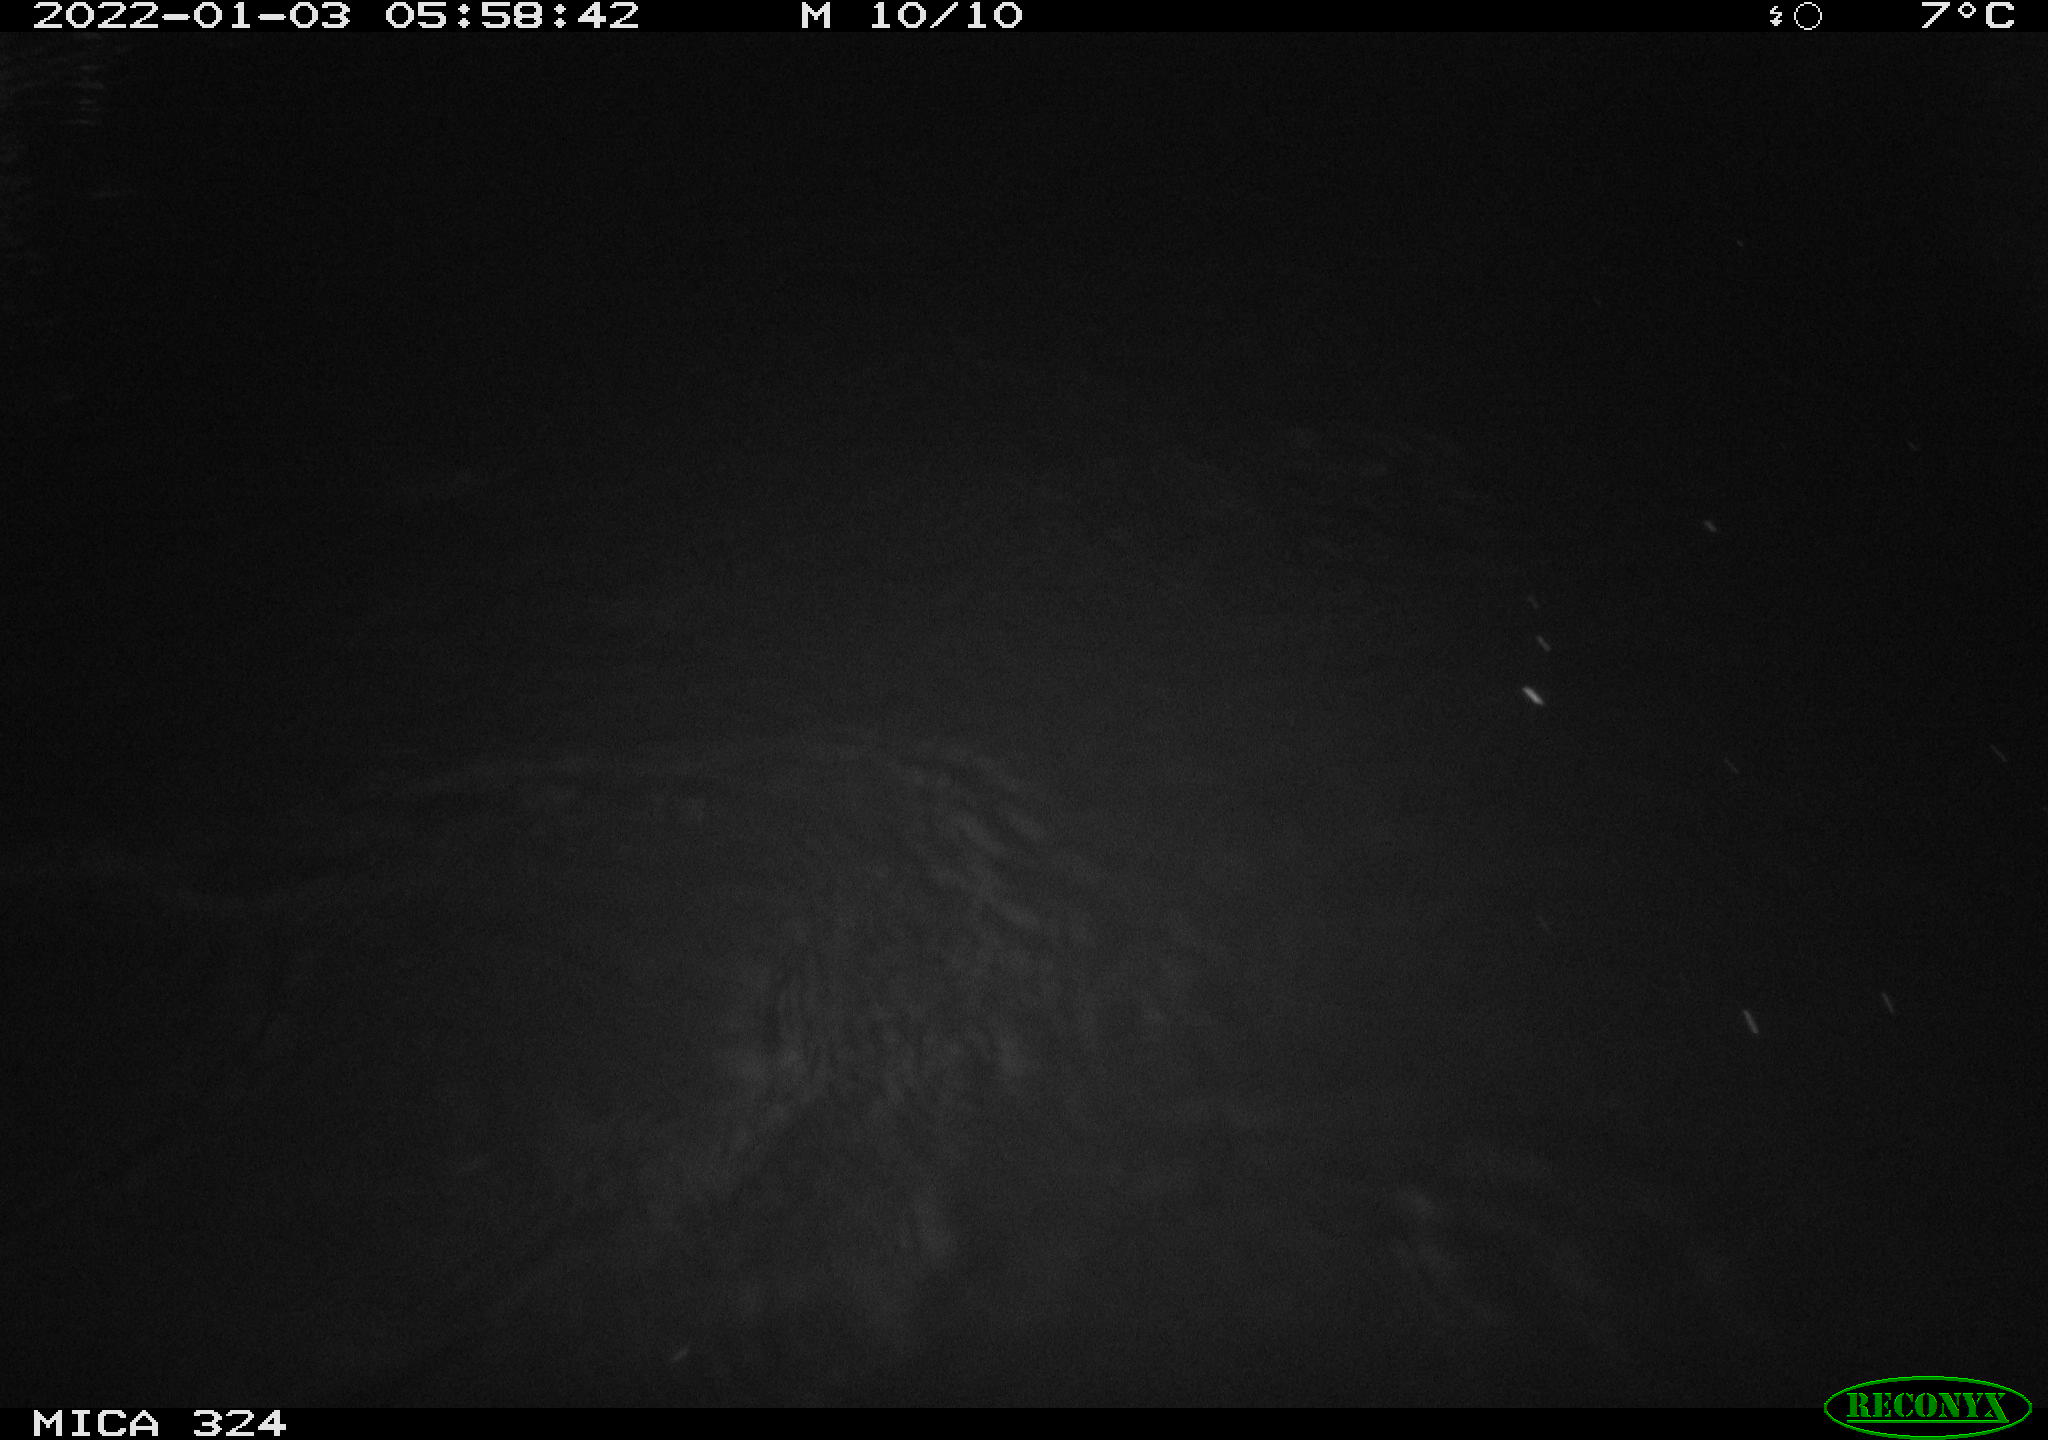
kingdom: Animalia
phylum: Chordata
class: Mammalia
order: Rodentia
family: Cricetidae
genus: Ondatra
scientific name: Ondatra zibethicus
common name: Muskrat
